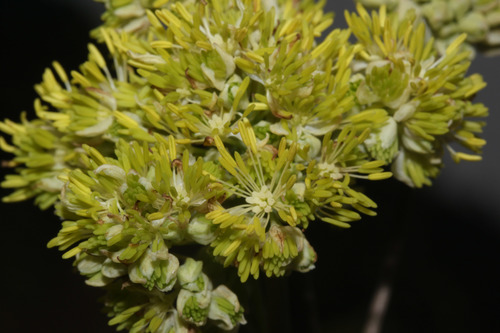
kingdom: Plantae
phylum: Tracheophyta
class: Magnoliopsida
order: Ranunculales
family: Ranunculaceae
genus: Thalictrum
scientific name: Thalictrum speciosissimum
